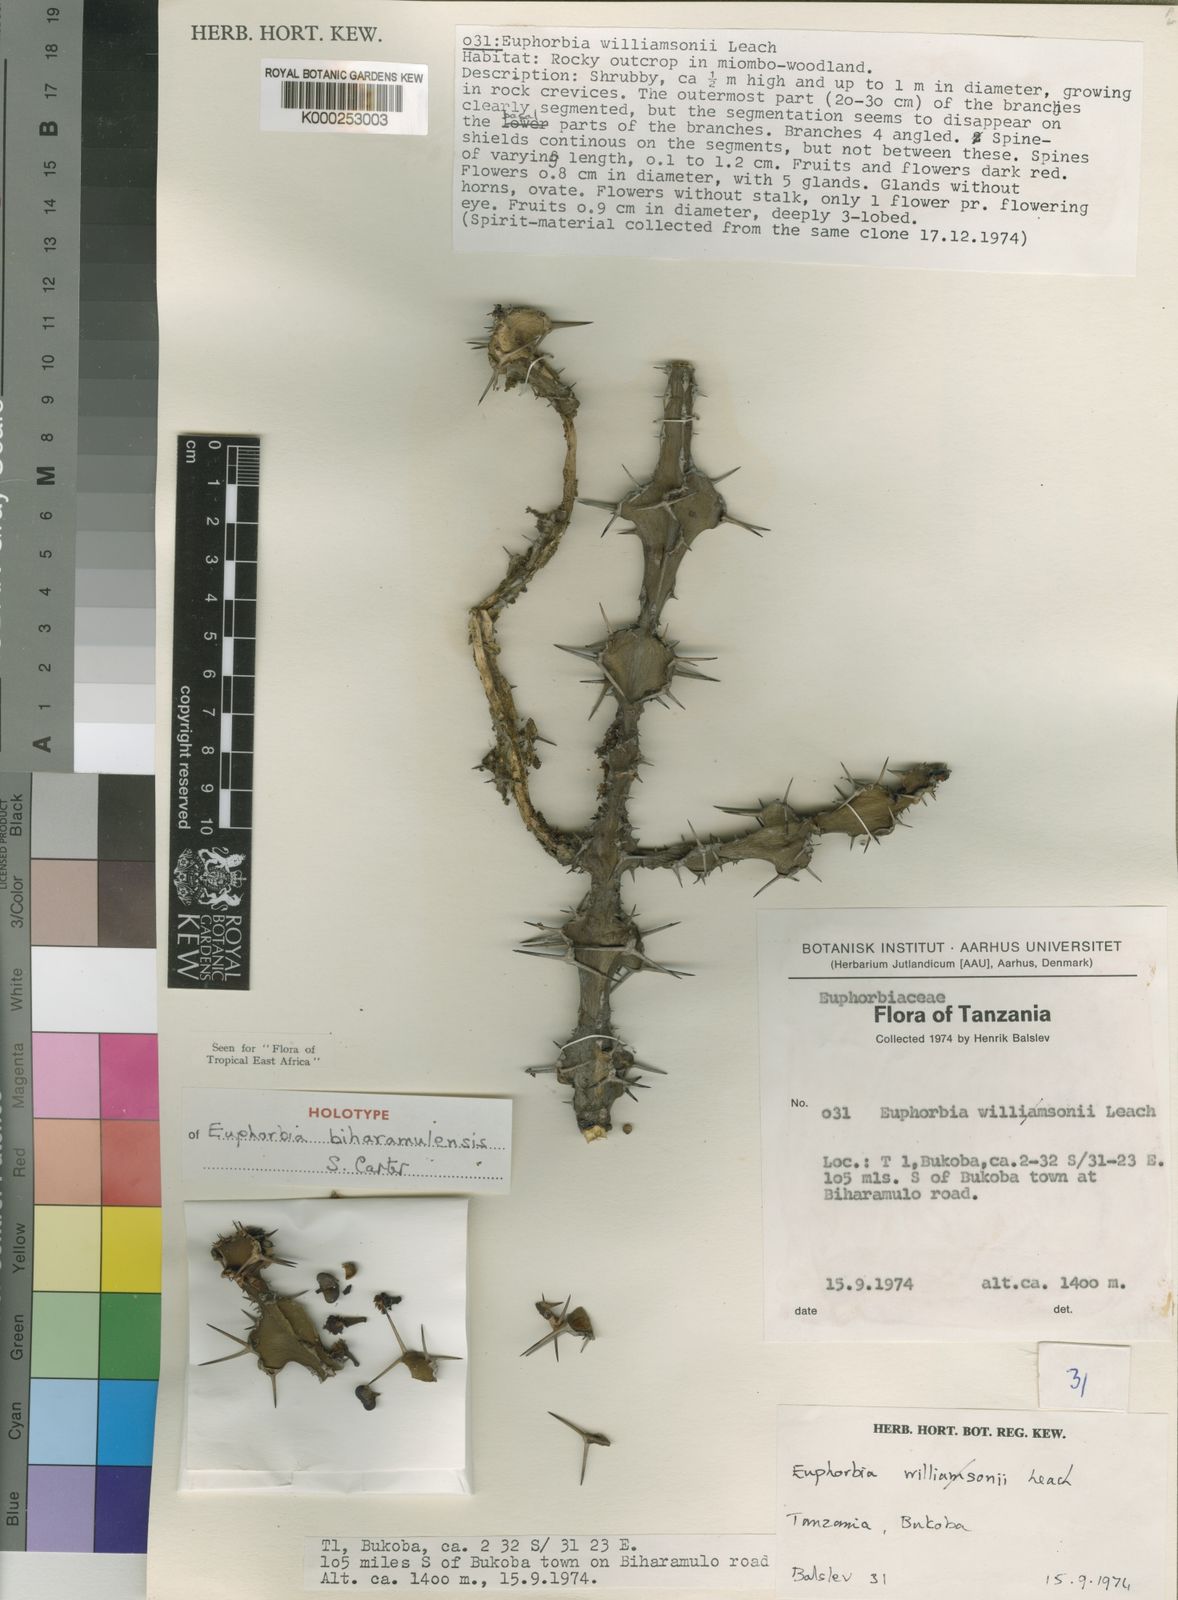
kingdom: Plantae
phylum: Tracheophyta
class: Magnoliopsida
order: Malpighiales
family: Euphorbiaceae
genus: Euphorbia
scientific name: Euphorbia biharamulensis
